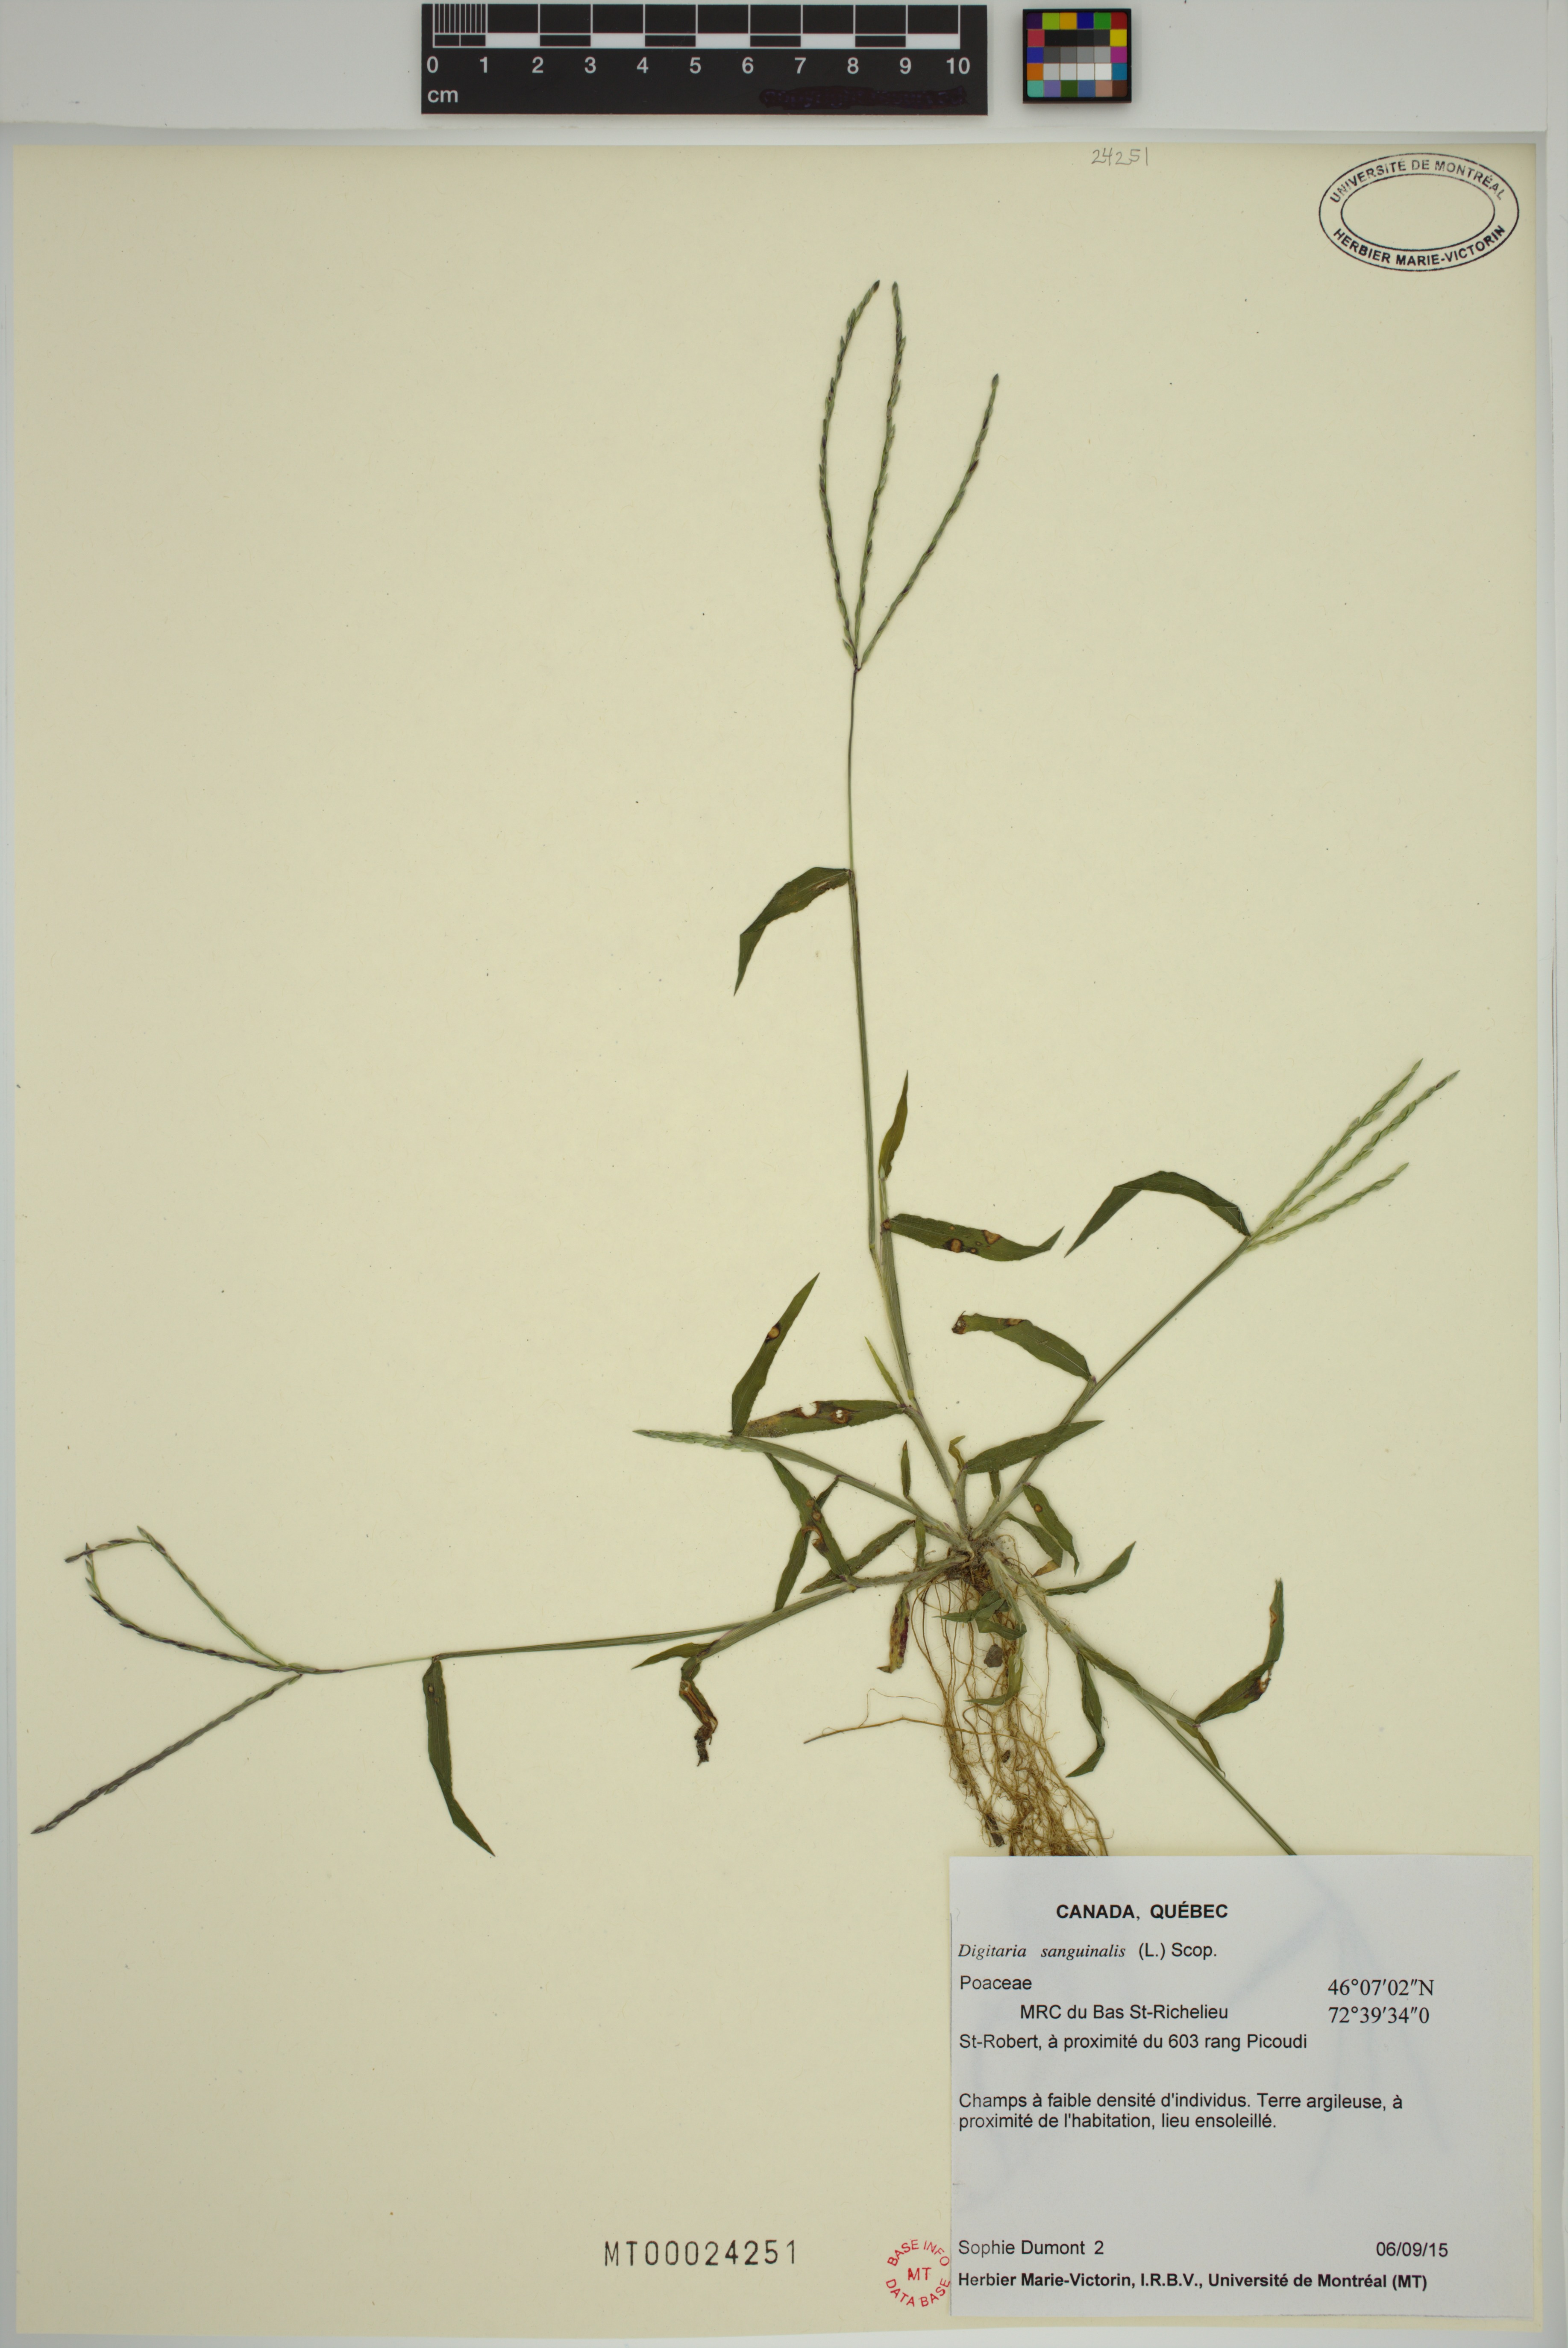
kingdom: Plantae
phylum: Tracheophyta
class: Liliopsida
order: Poales
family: Poaceae
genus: Digitaria
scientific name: Digitaria sanguinalis
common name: Hairy crabgrass
